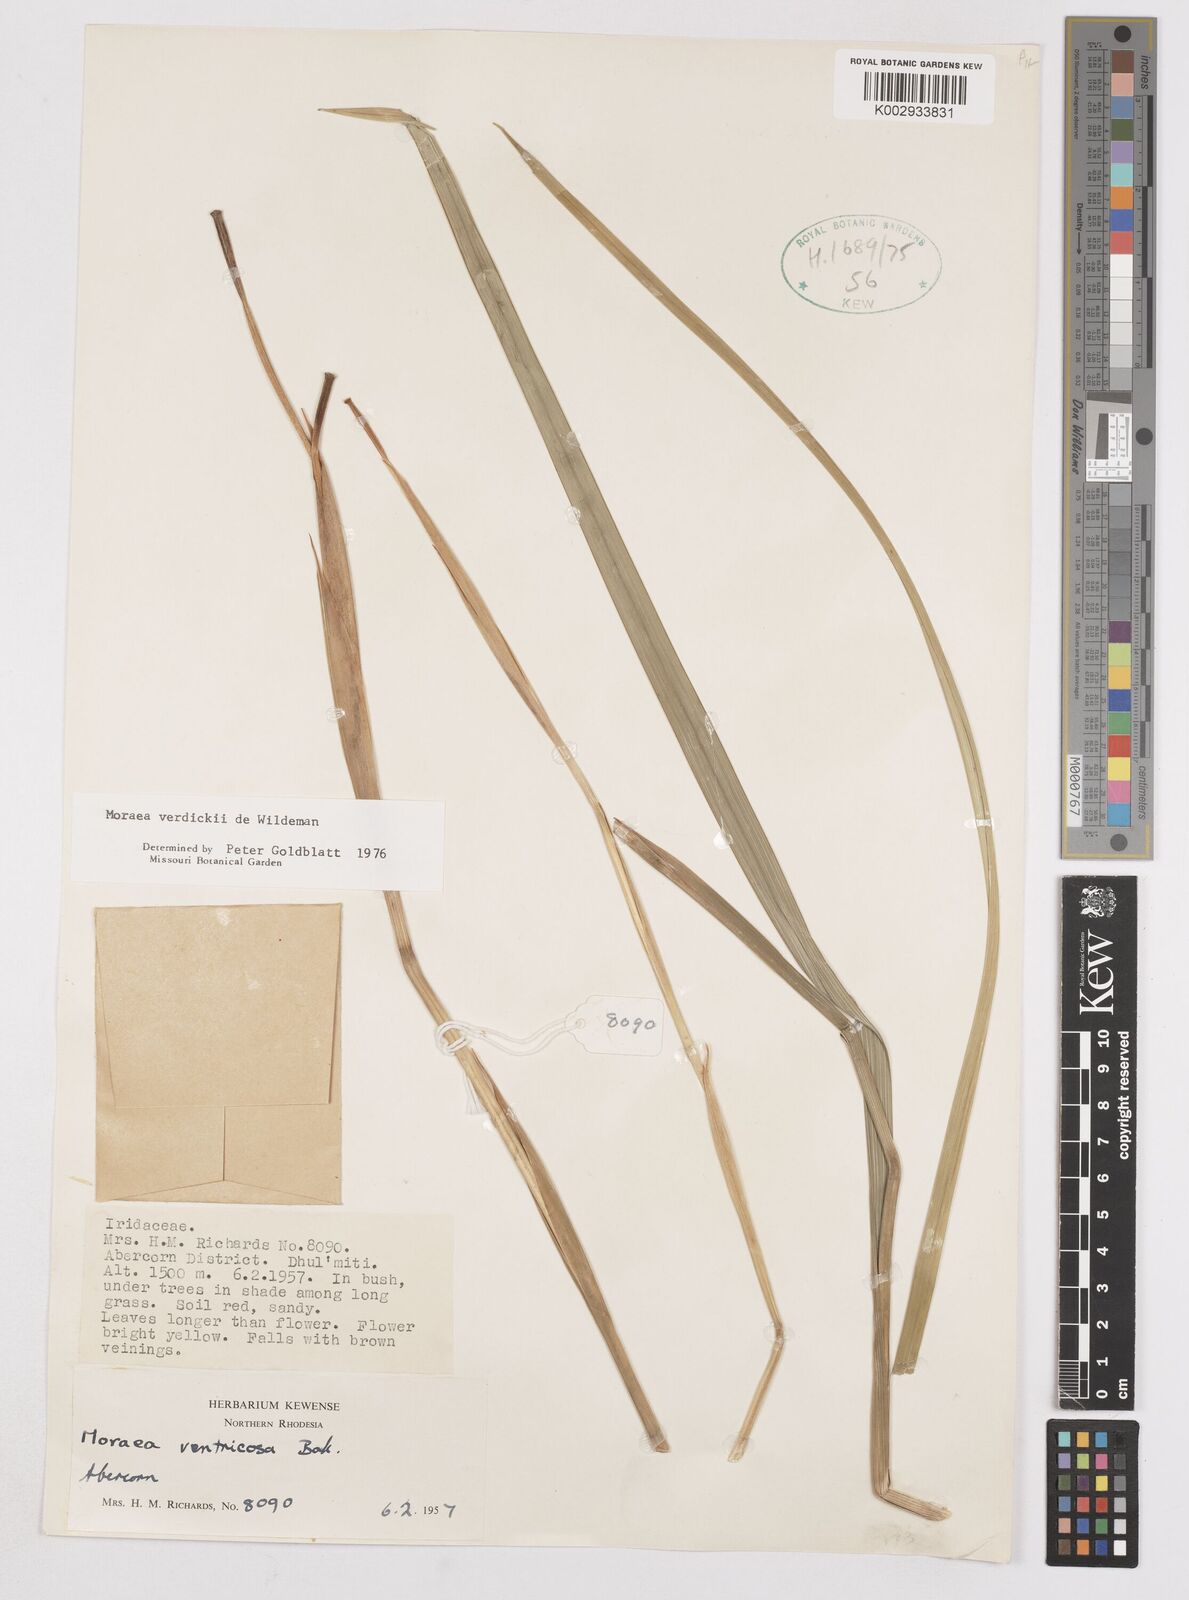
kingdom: Plantae
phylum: Tracheophyta
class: Liliopsida
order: Asparagales
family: Iridaceae
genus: Moraea
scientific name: Moraea verdickii
